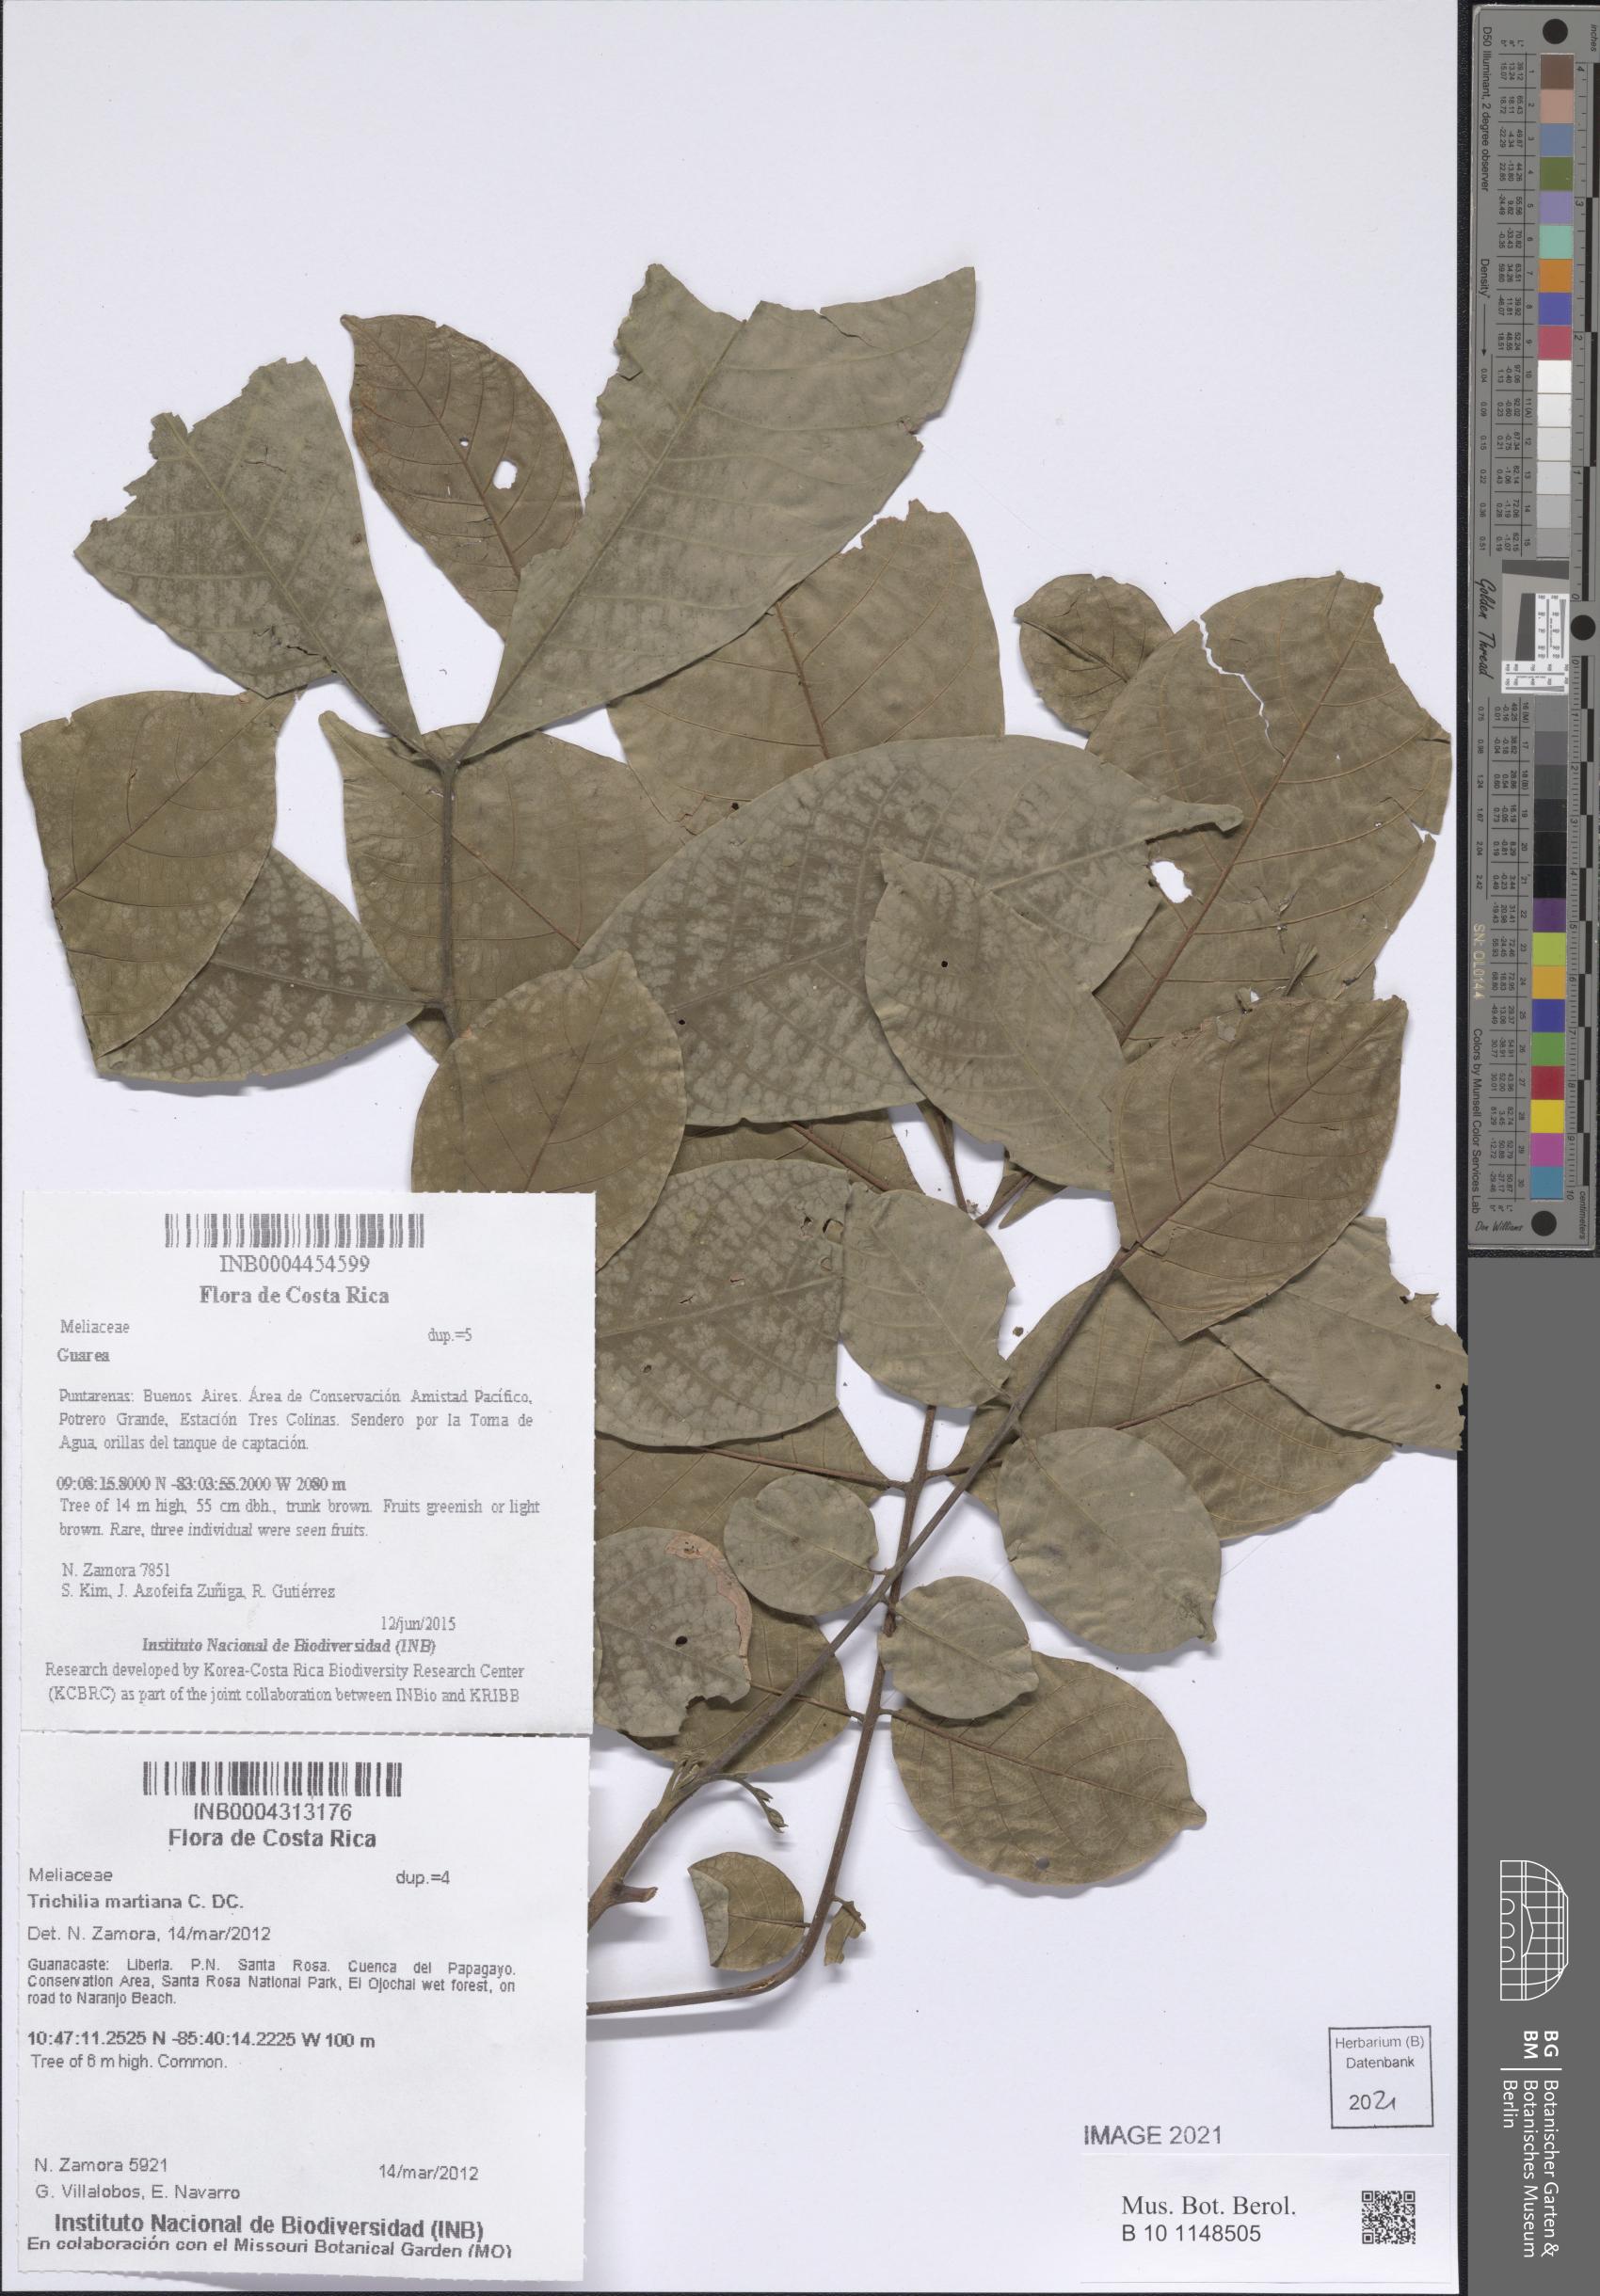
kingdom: Plantae
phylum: Tracheophyta
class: Magnoliopsida
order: Sapindales
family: Meliaceae
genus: Guarea
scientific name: Guarea
